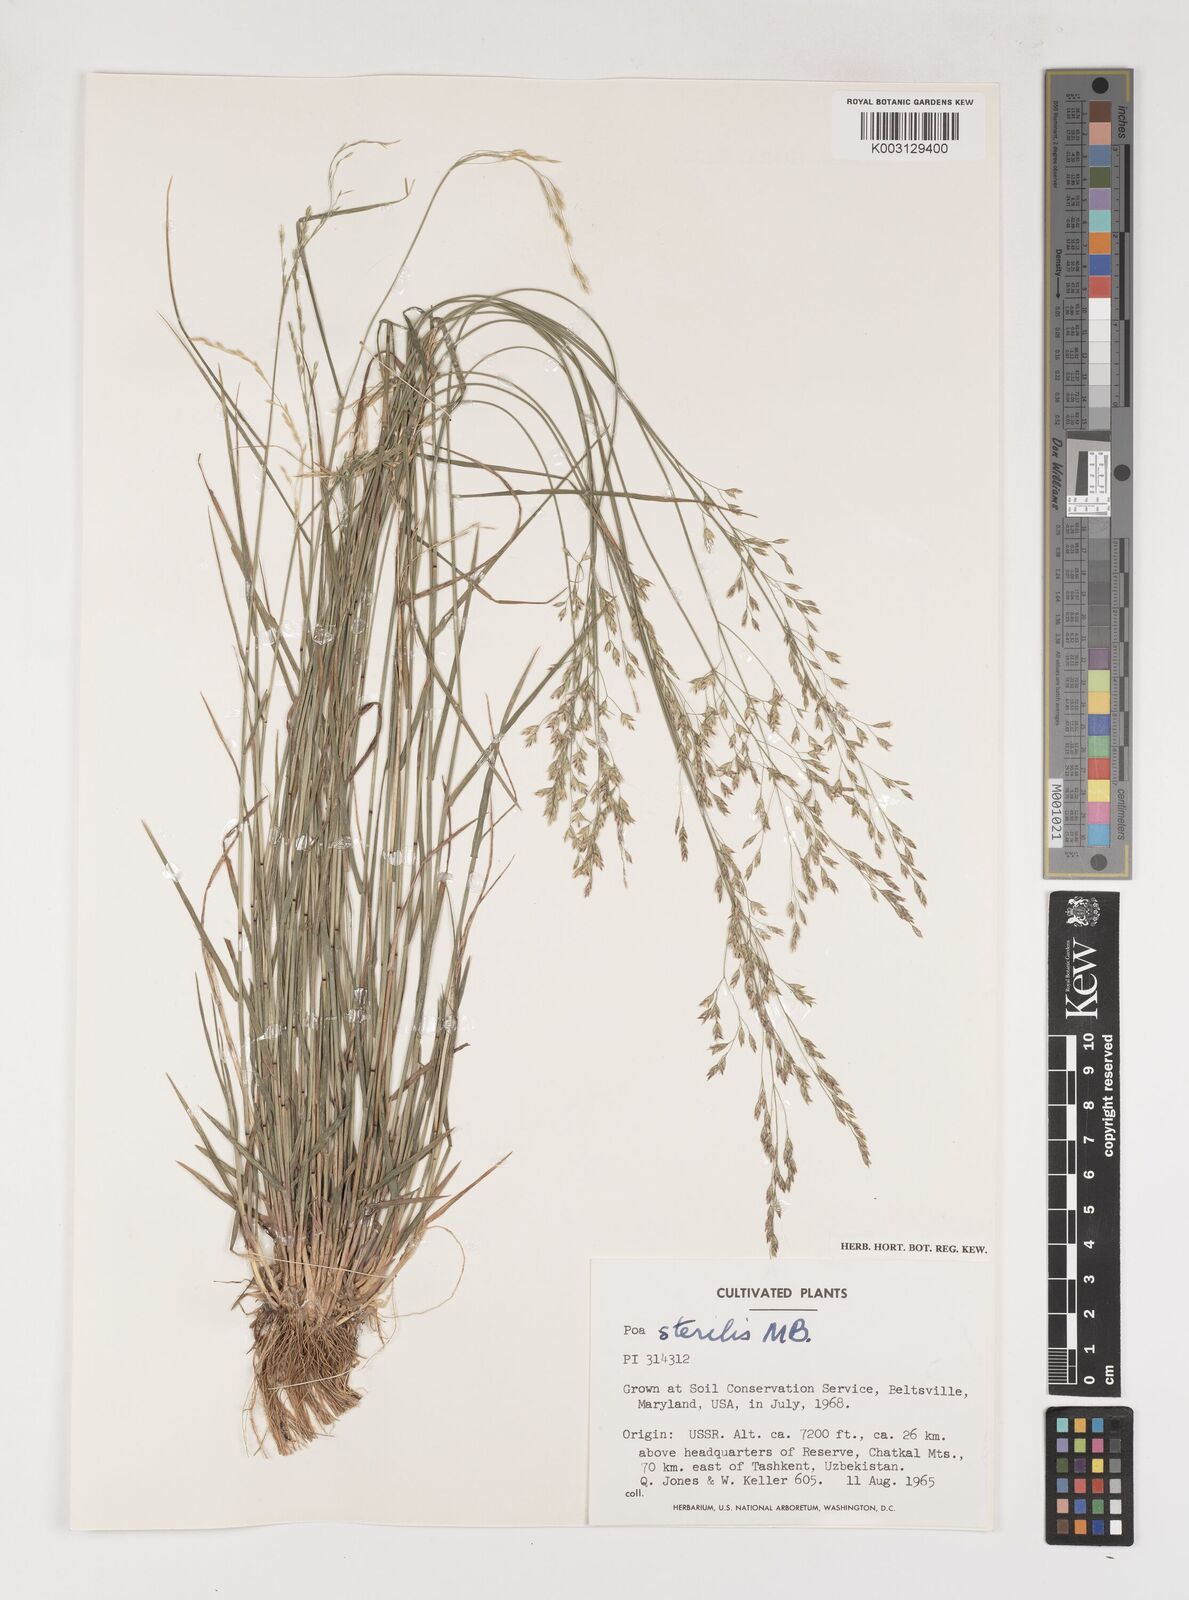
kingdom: Plantae
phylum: Tracheophyta
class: Liliopsida
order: Poales
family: Poaceae
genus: Poa
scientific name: Poa sterilis
